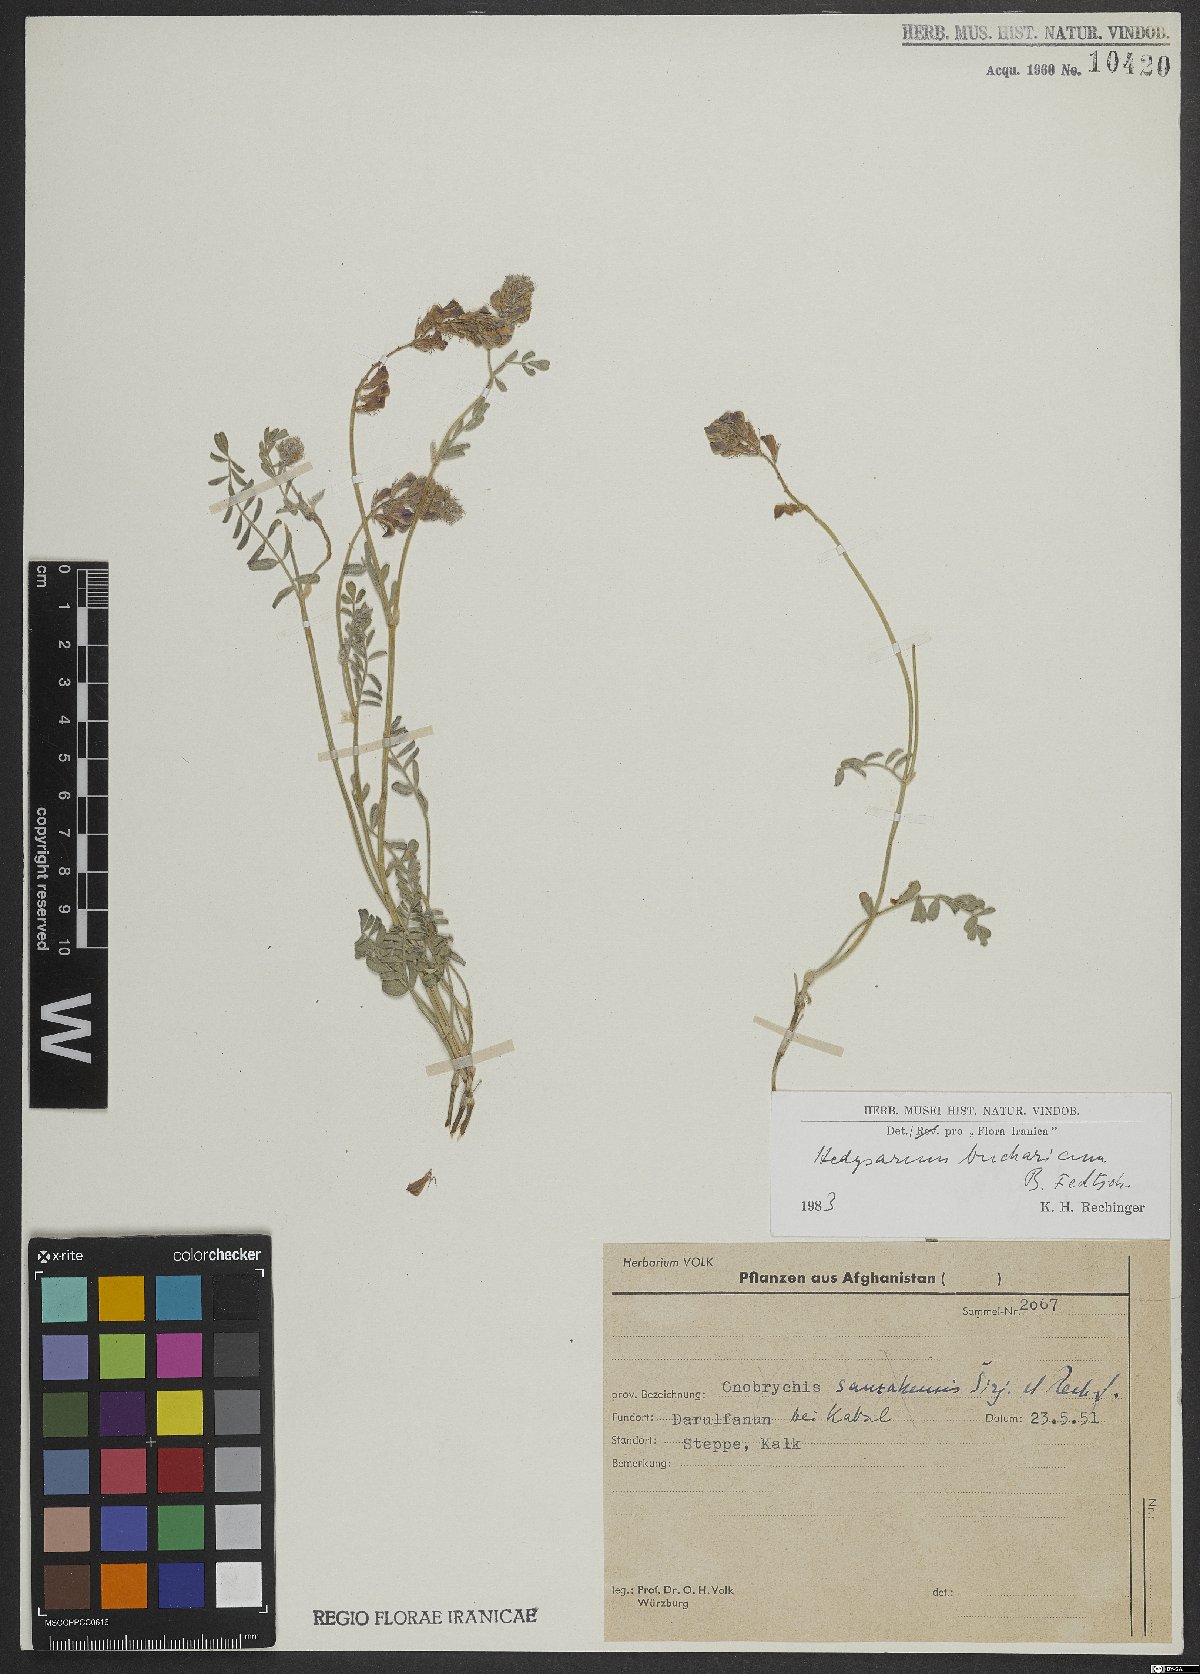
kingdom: Plantae
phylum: Tracheophyta
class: Magnoliopsida
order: Fabales
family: Fabaceae
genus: Hedysarum
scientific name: Hedysarum bucharicum
